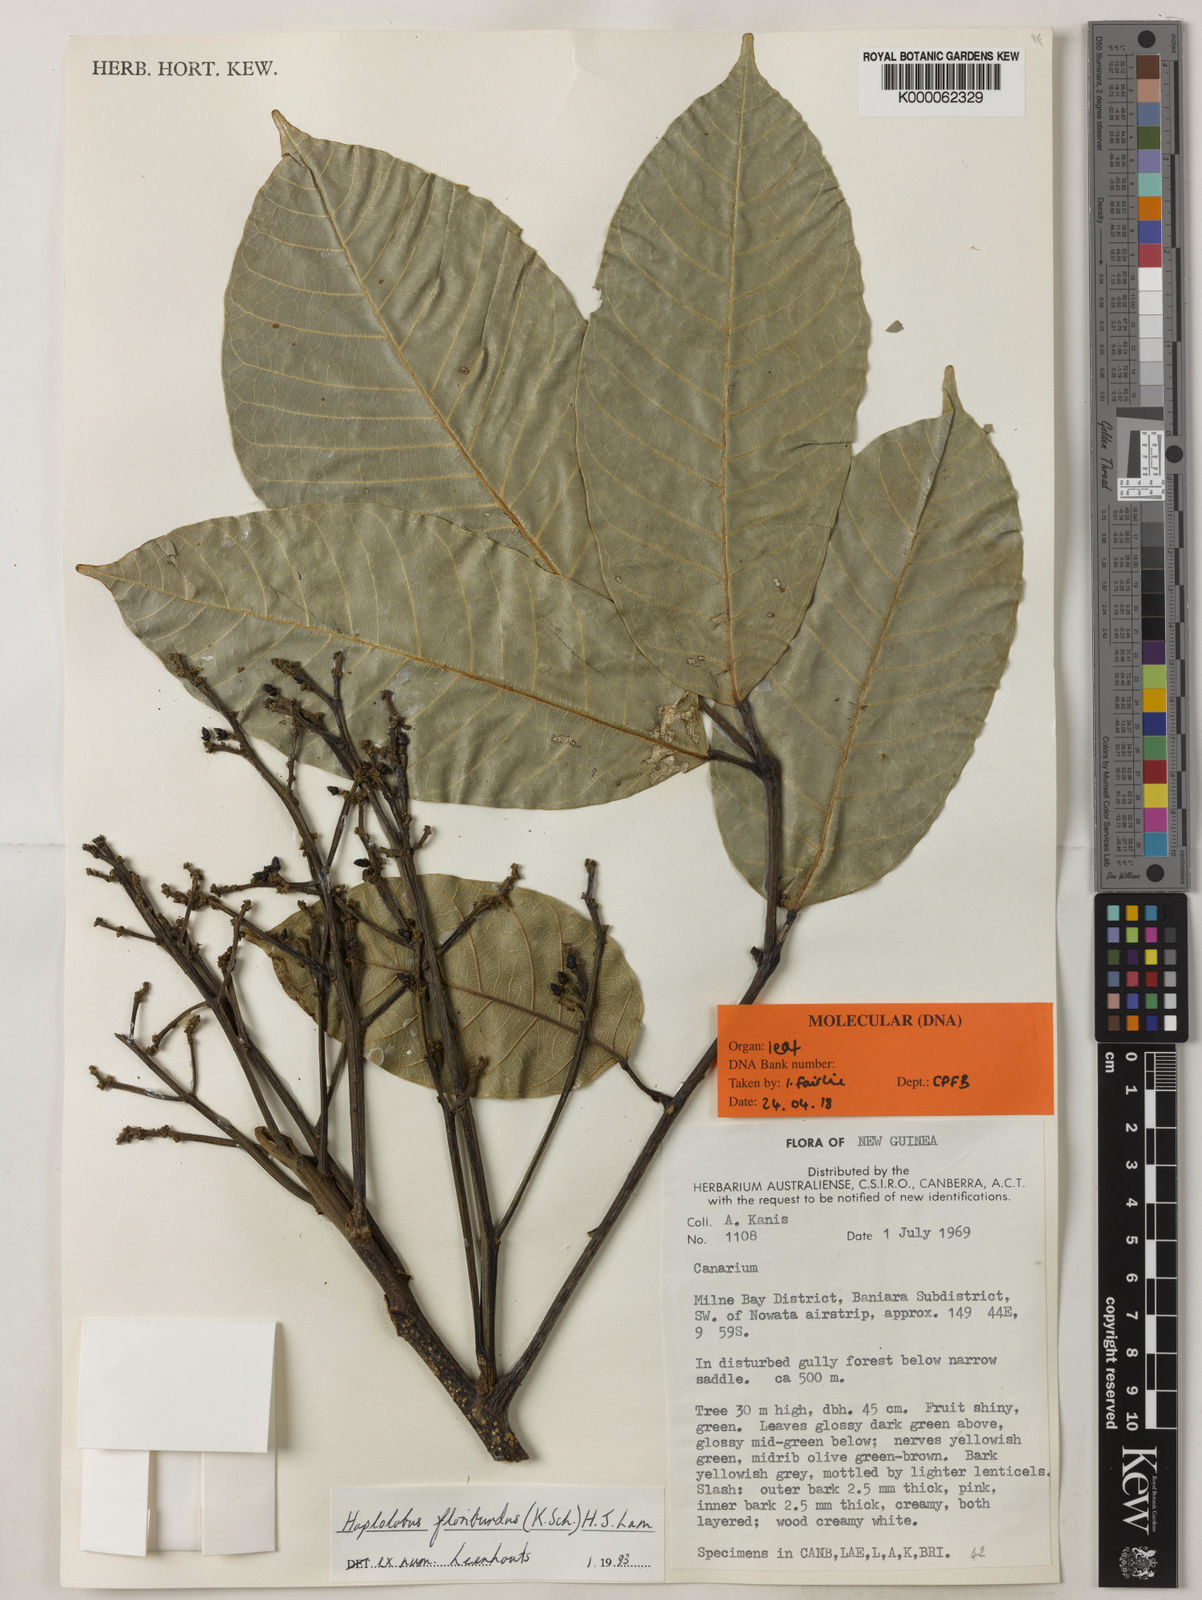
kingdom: Plantae
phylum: Tracheophyta
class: Magnoliopsida
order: Sapindales
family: Burseraceae
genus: Haplolobus
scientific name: Haplolobus floribundus
